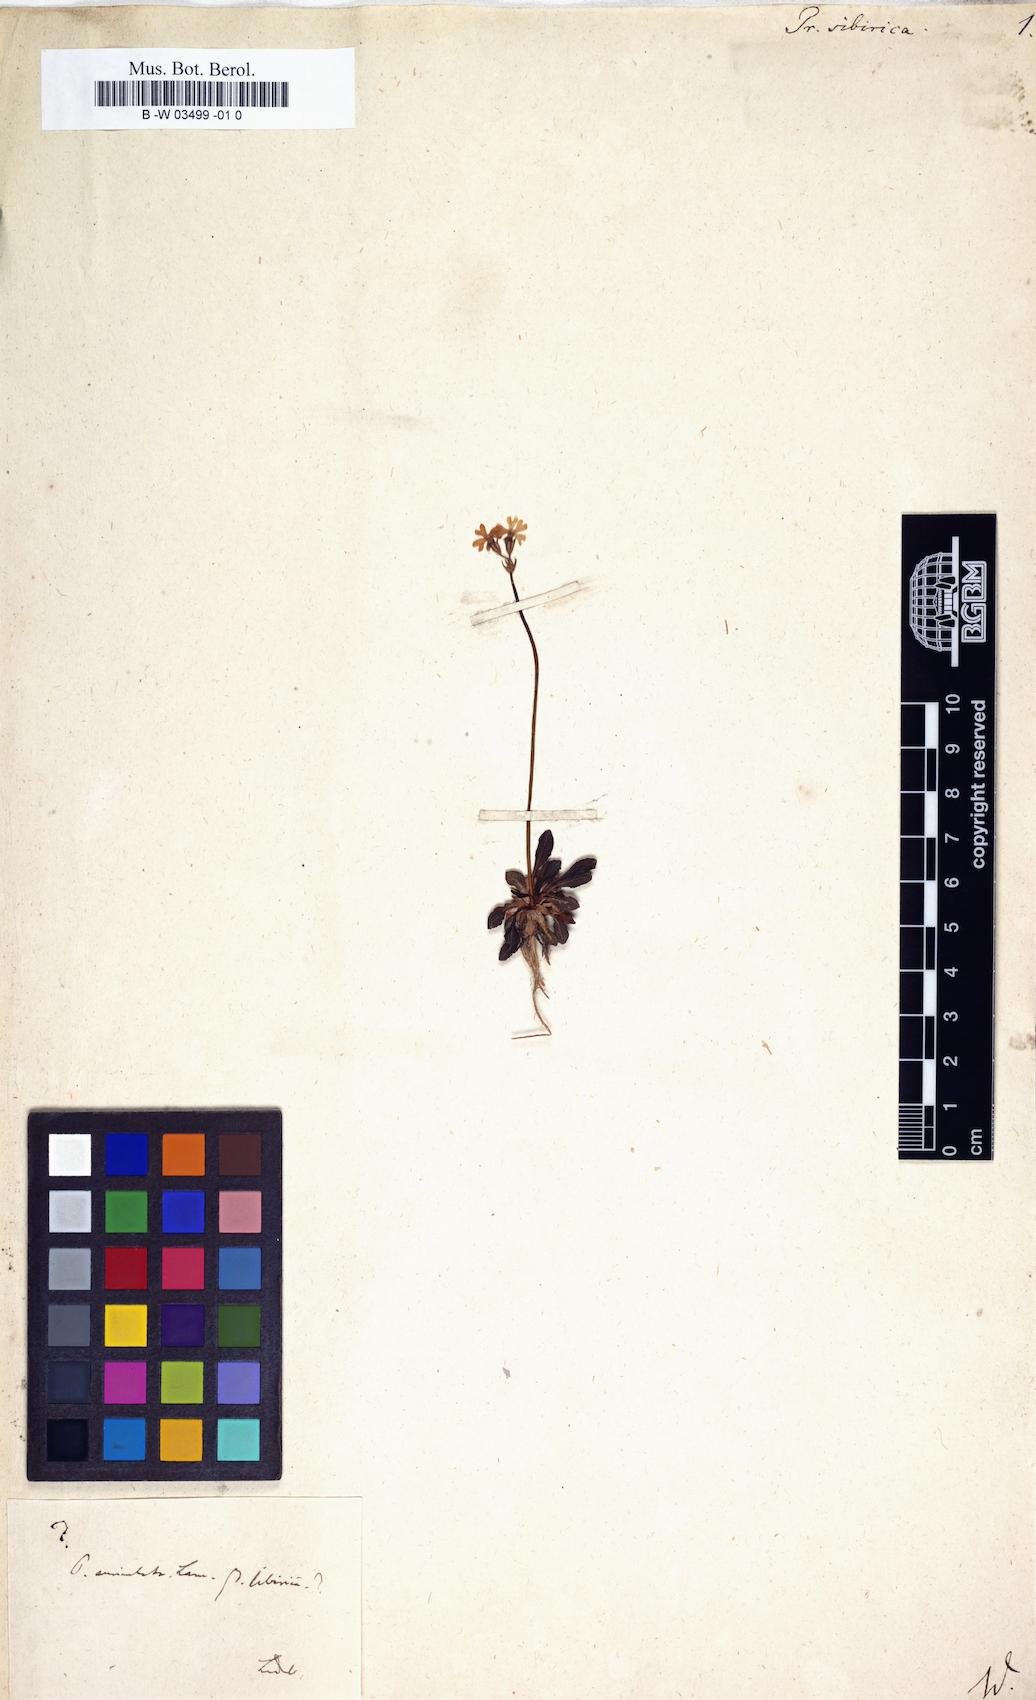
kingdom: Plantae
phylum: Tracheophyta
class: Magnoliopsida
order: Ericales
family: Primulaceae
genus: Primula
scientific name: Primula nutans
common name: Siberian primrose
